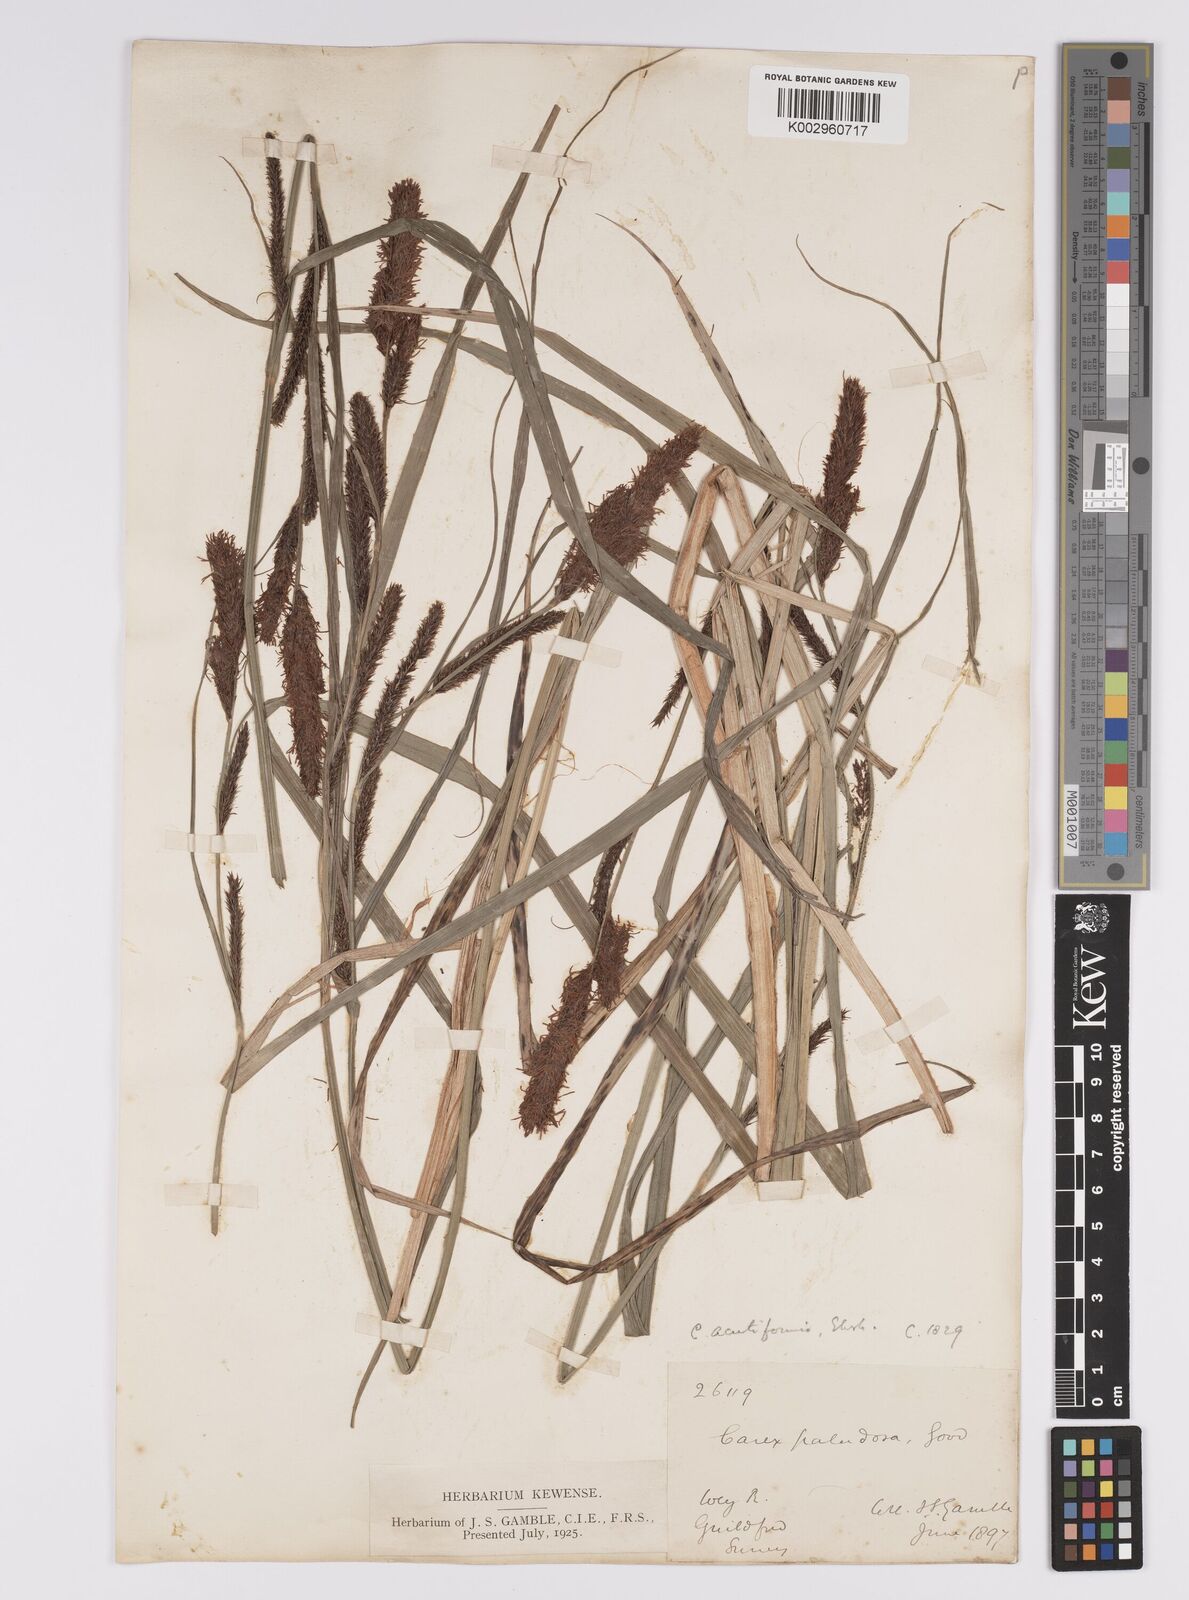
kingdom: Plantae
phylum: Tracheophyta
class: Liliopsida
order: Poales
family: Cyperaceae
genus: Carex
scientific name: Carex acutiformis
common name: Lesser pond-sedge
